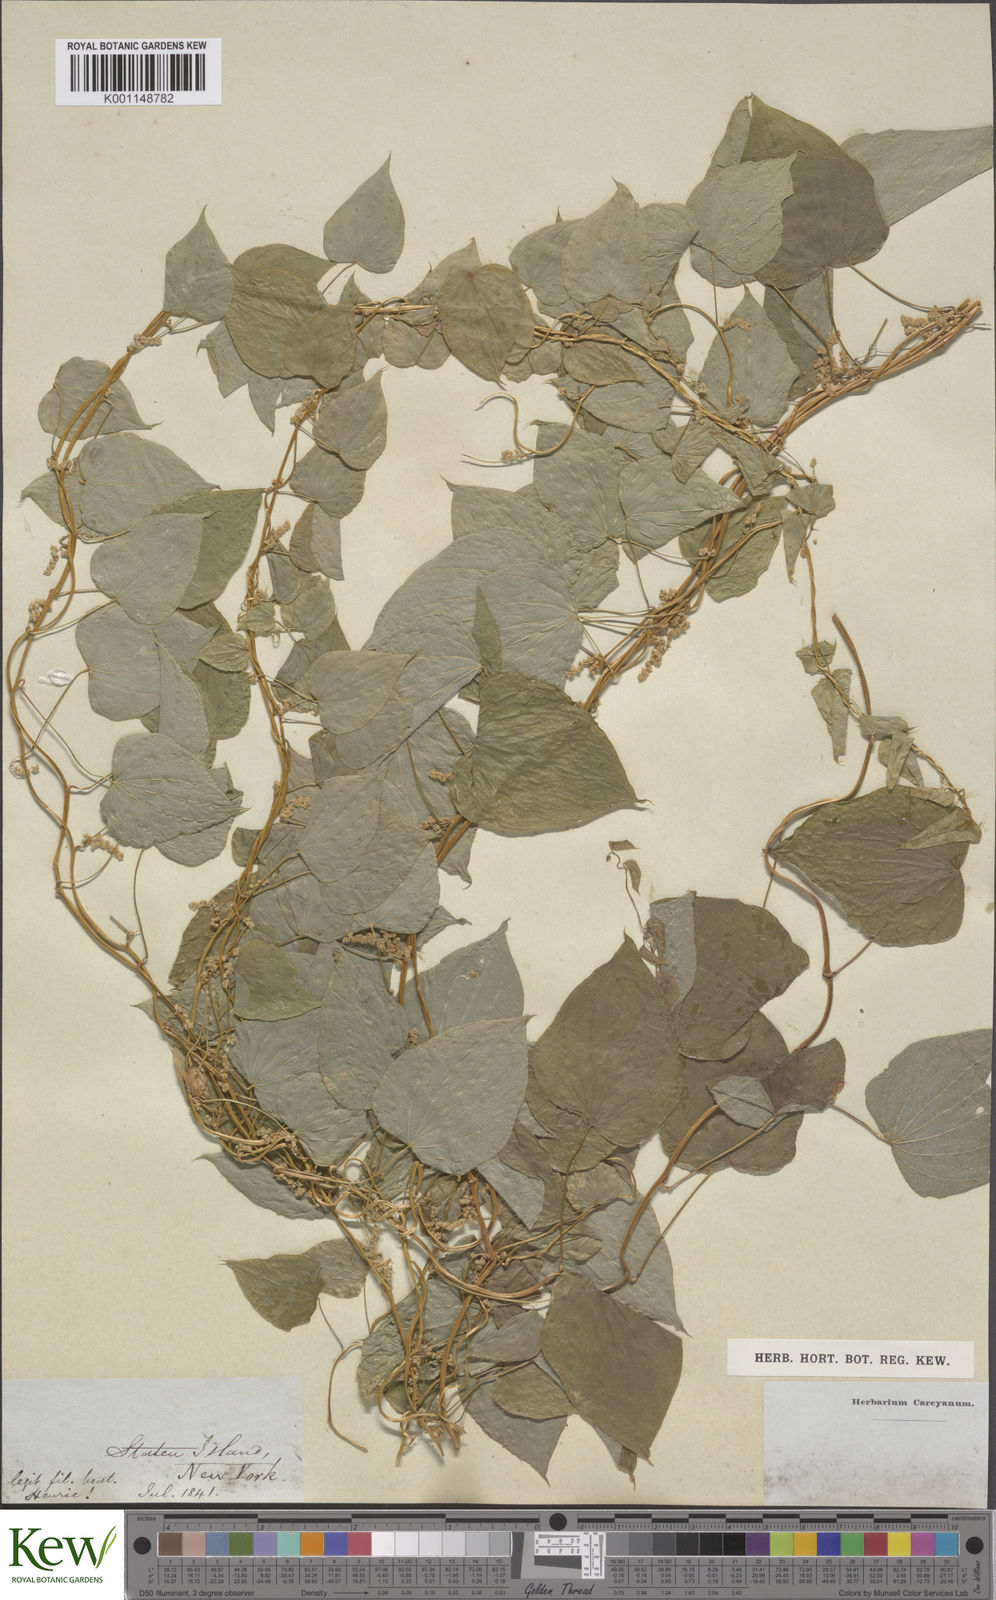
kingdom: Plantae
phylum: Tracheophyta
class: Liliopsida
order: Dioscoreales
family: Dioscoreaceae
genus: Dioscorea
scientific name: Dioscorea villosa
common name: Wild yam
